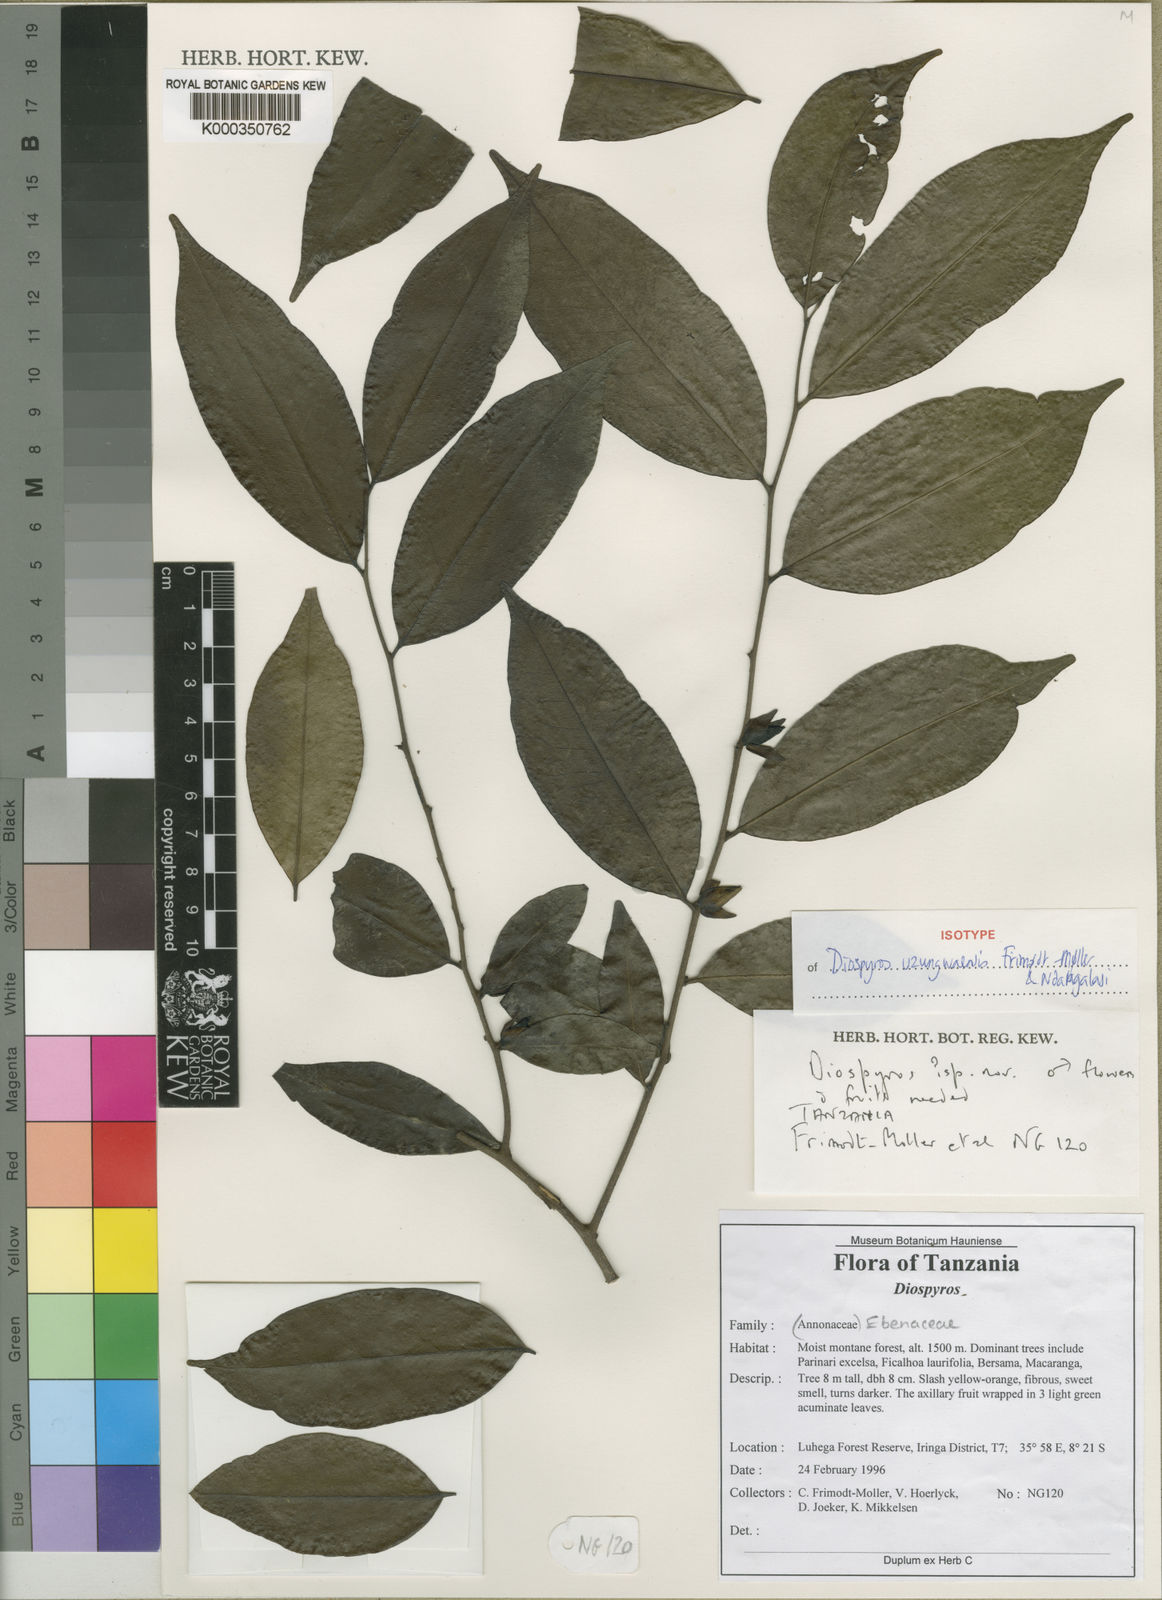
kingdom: Plantae
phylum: Tracheophyta
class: Magnoliopsida
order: Ericales
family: Ebenaceae
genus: Diospyros
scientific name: Diospyros uzungwaensis
